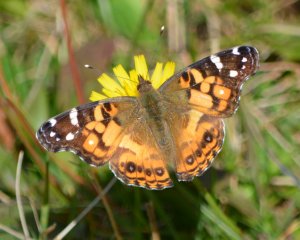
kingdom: Animalia
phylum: Arthropoda
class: Insecta
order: Lepidoptera
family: Nymphalidae
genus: Vanessa
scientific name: Vanessa virginiensis
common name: American Lady
